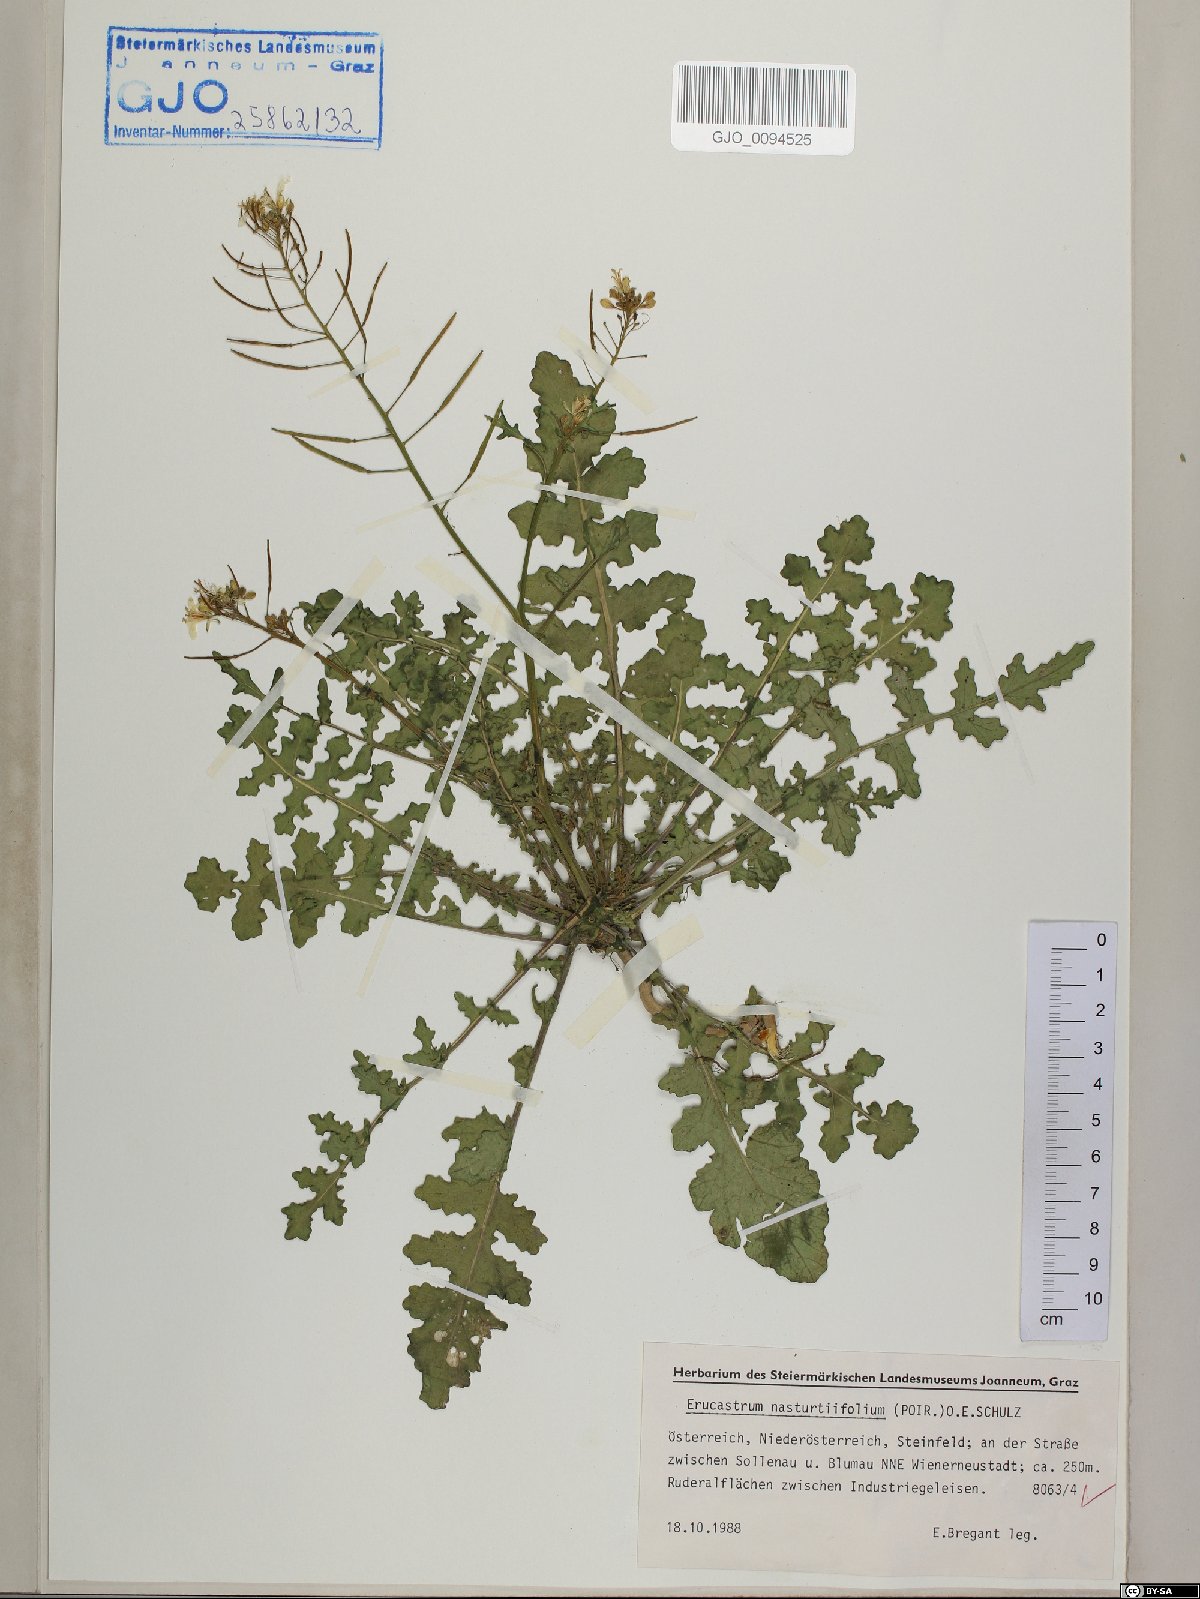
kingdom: Plantae
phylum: Tracheophyta
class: Magnoliopsida
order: Brassicales
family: Brassicaceae
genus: Erucastrum
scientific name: Erucastrum nasturtiifolium
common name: Watercress-leaf rocket
